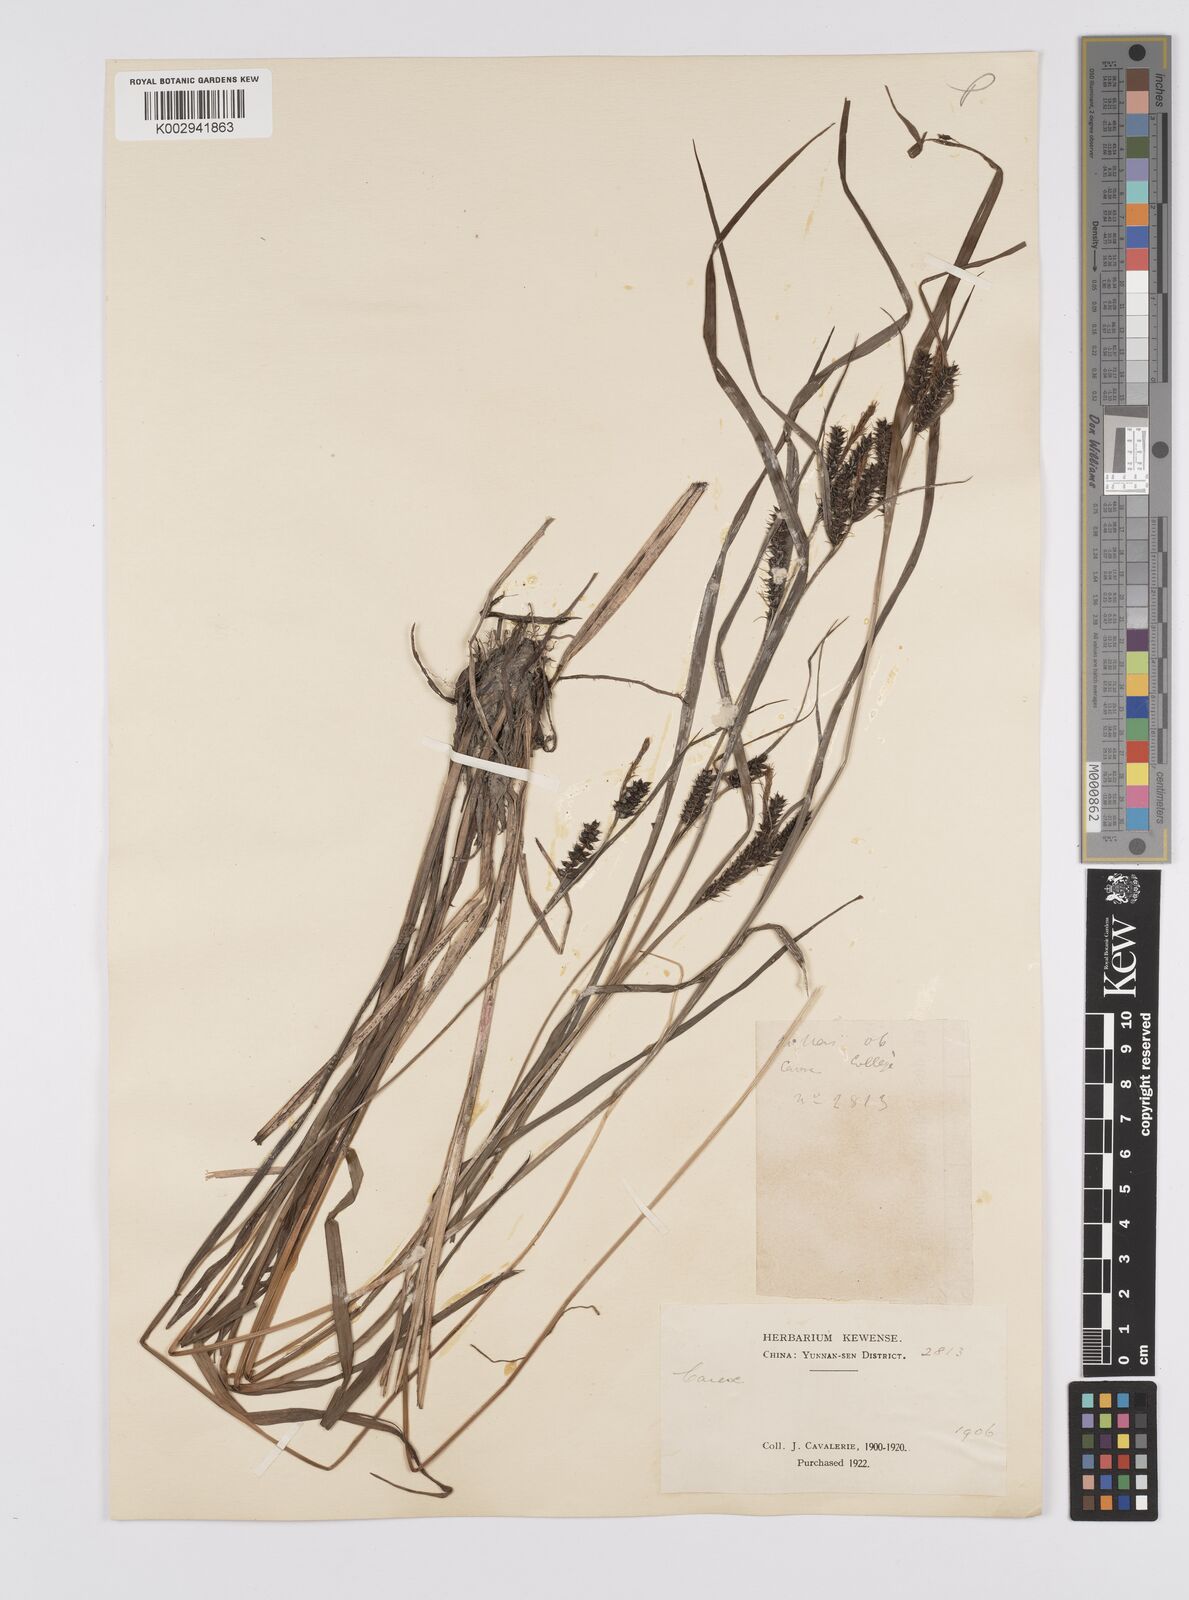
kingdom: Plantae
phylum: Tracheophyta
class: Liliopsida
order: Poales
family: Cyperaceae
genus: Carex
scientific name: Carex brownii
